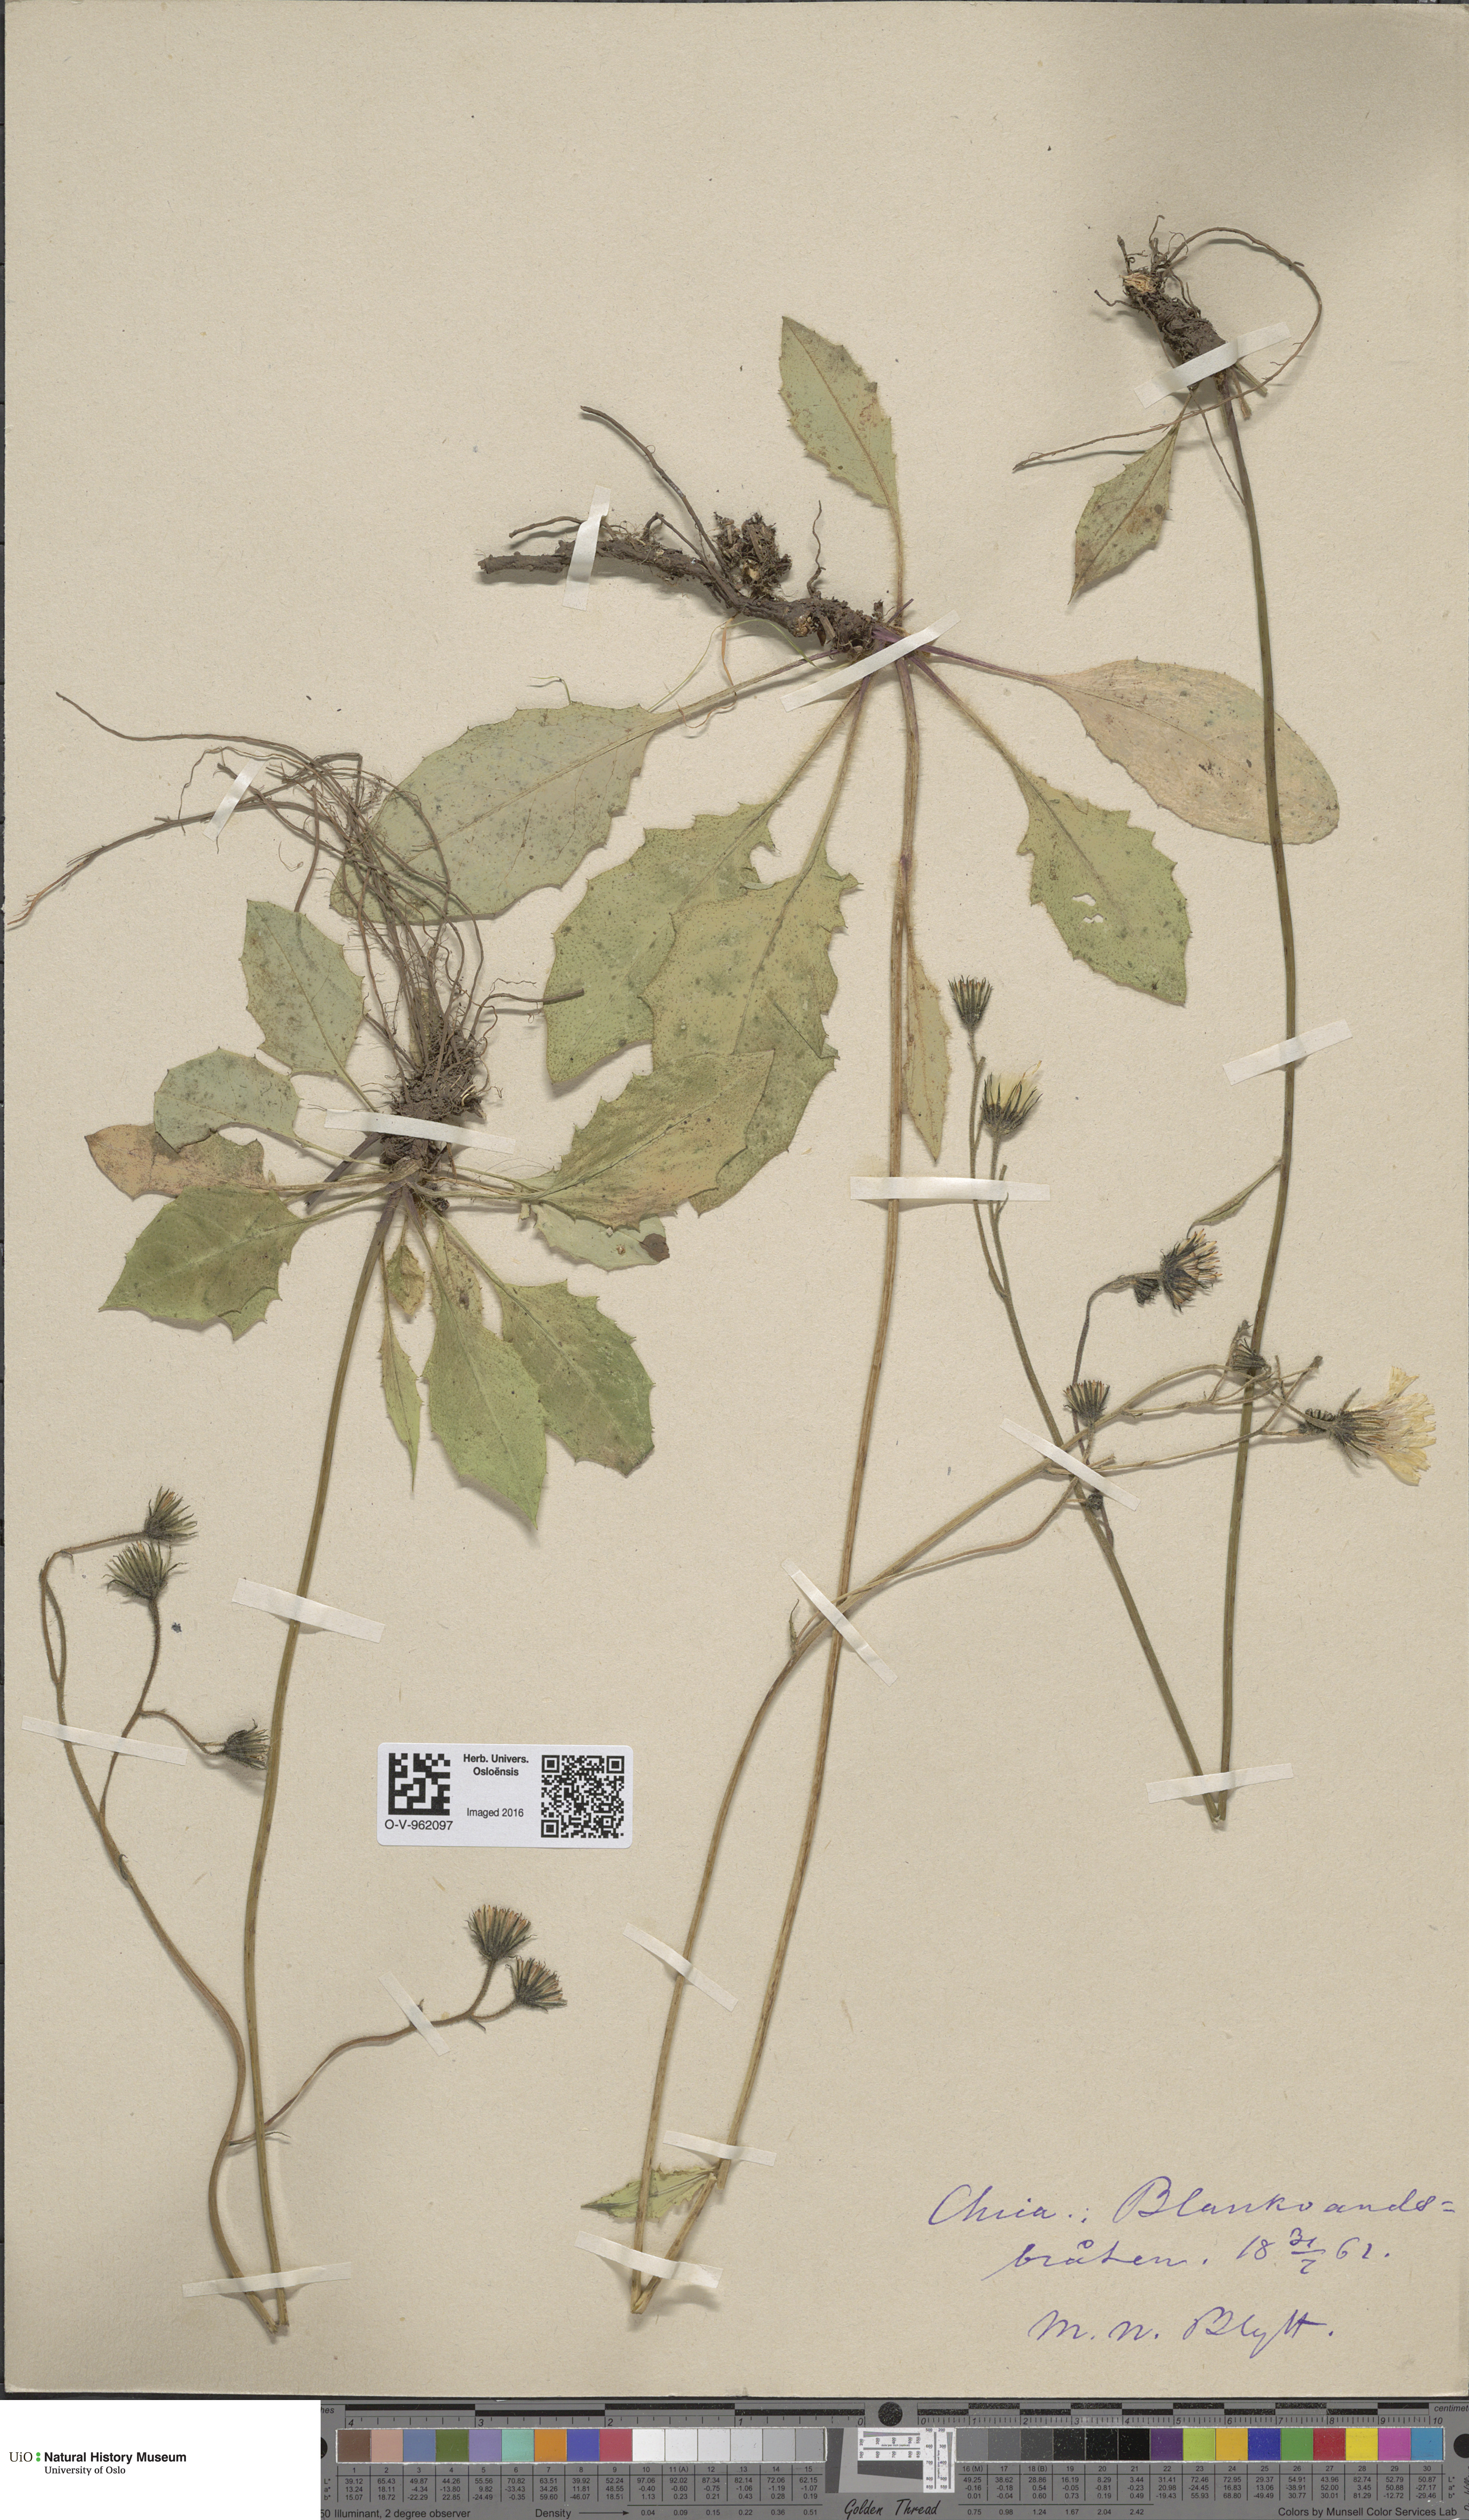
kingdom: Plantae
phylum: Tracheophyta
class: Magnoliopsida
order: Asterales
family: Asteraceae
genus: Hieracium
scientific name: Hieracium
